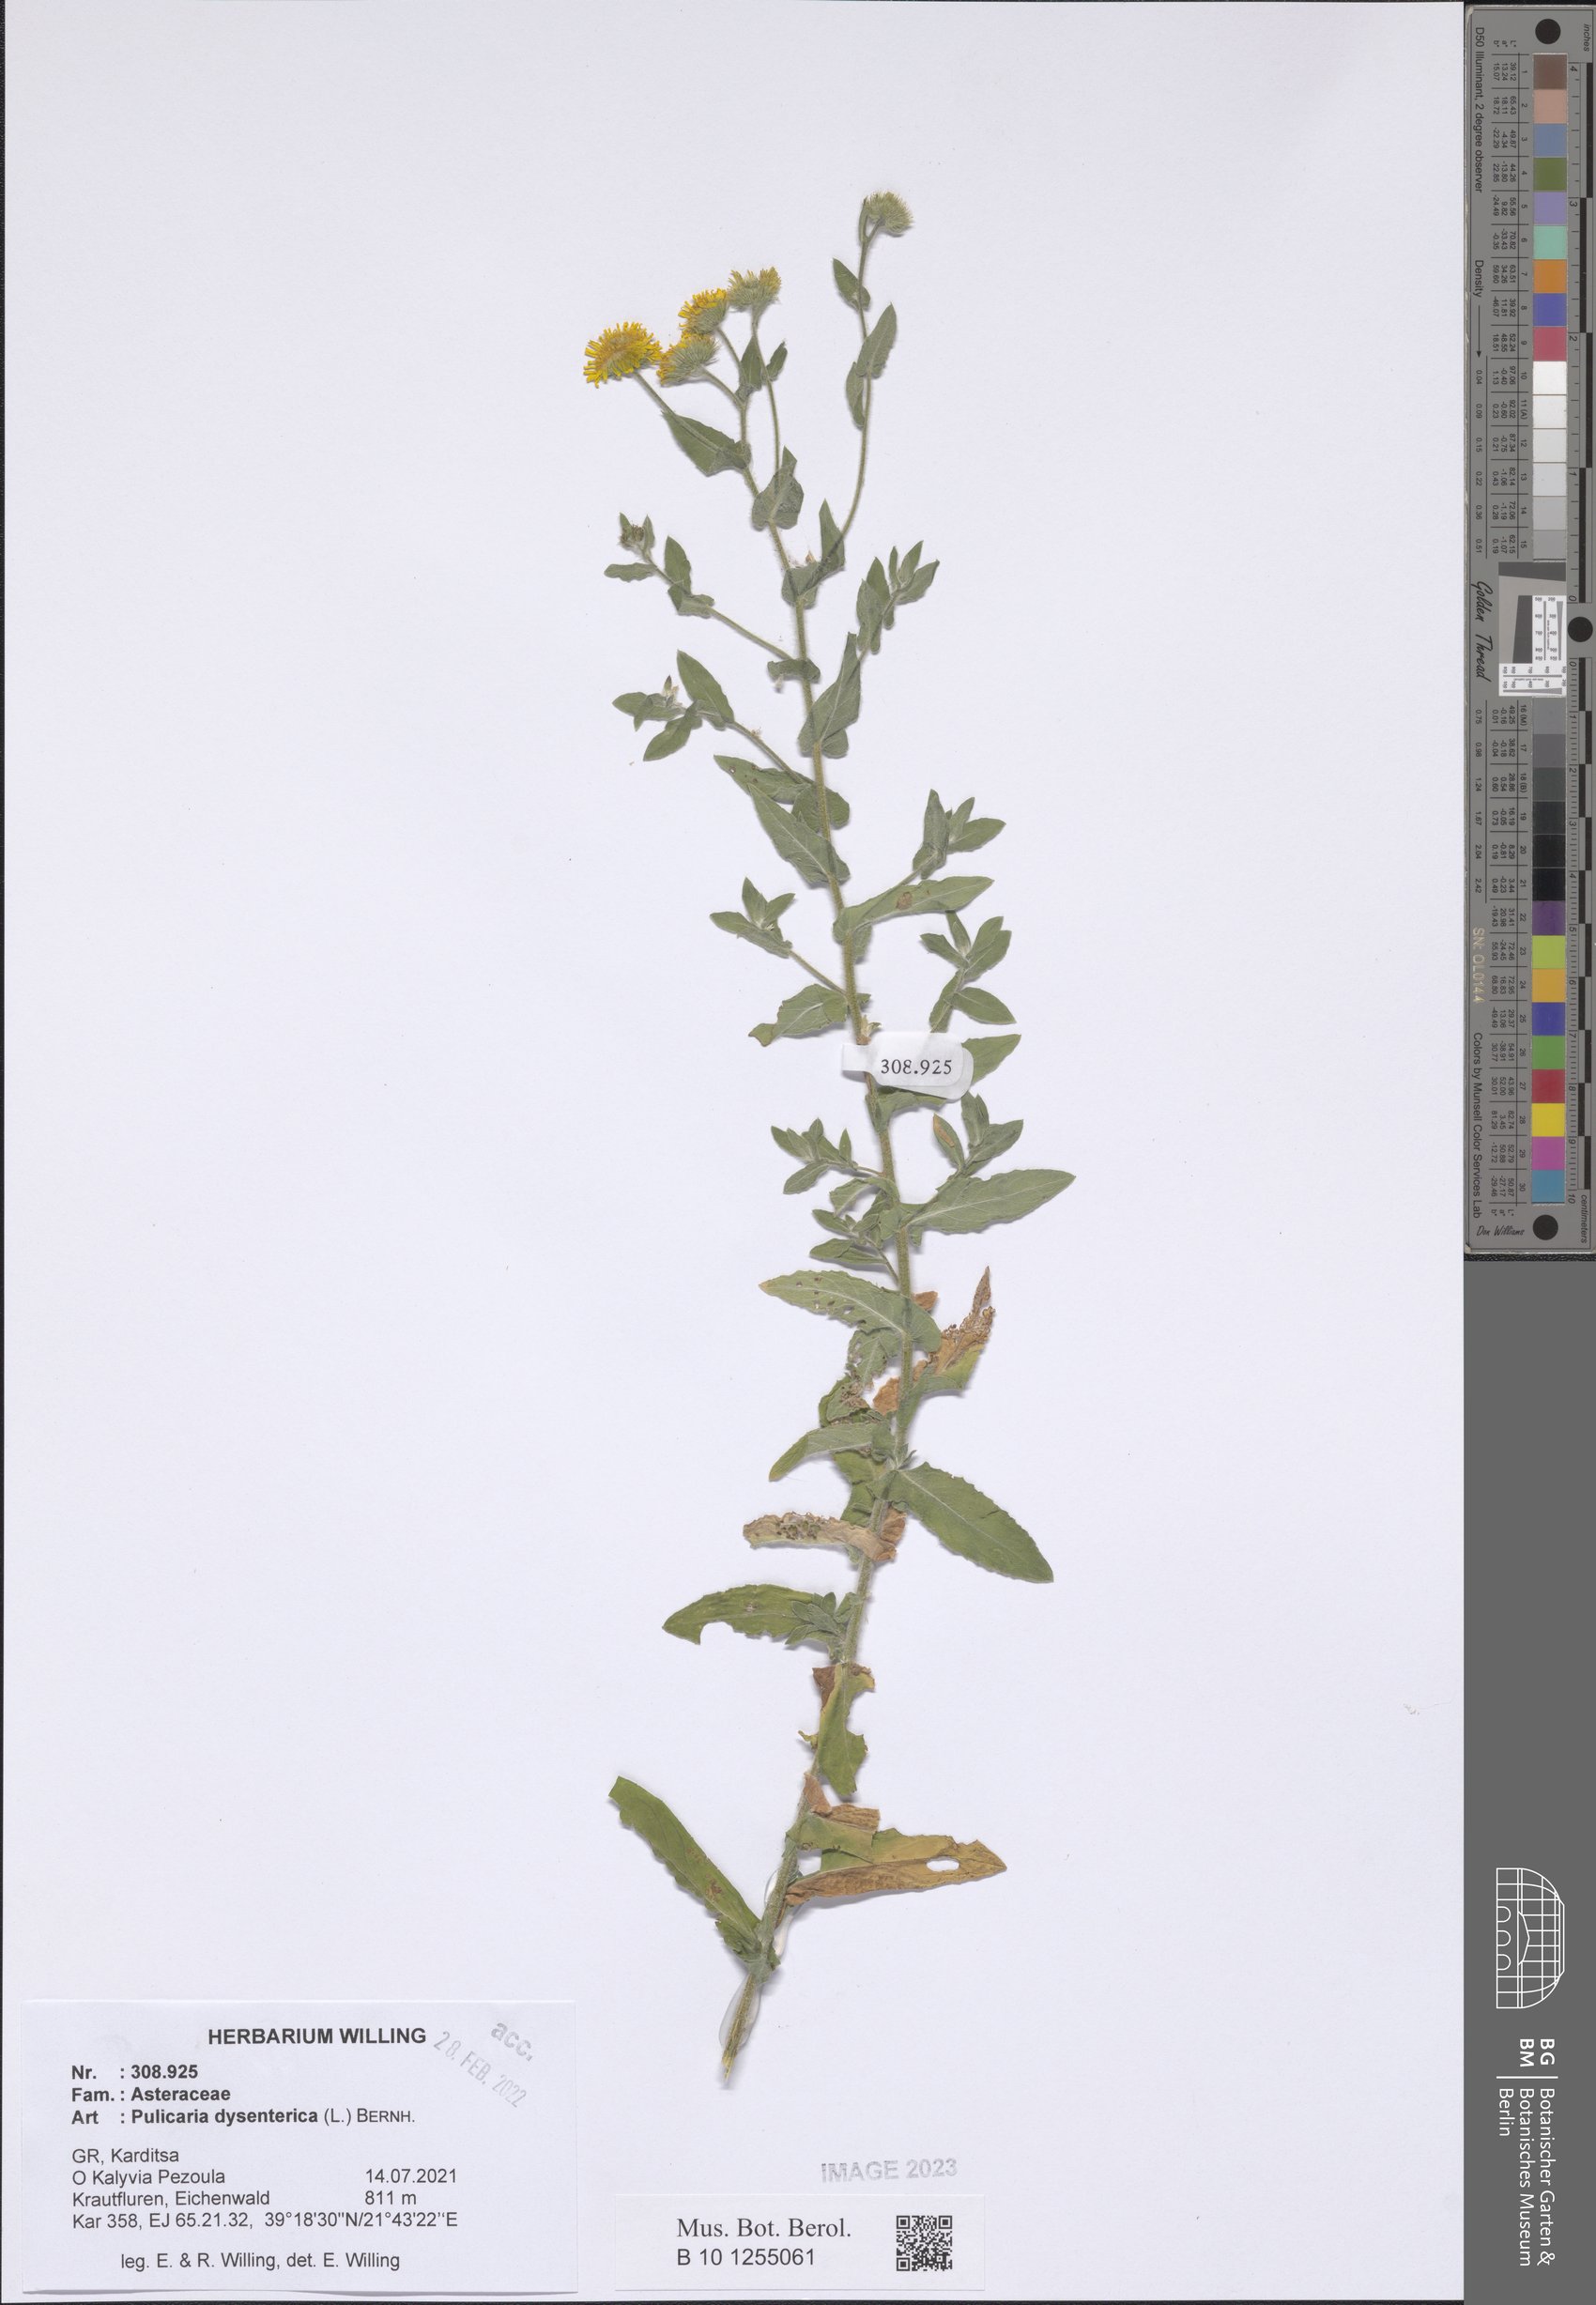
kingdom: Plantae
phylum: Tracheophyta
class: Magnoliopsida
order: Asterales
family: Asteraceae
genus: Pulicaria
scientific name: Pulicaria dysenterica
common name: Common fleabane
